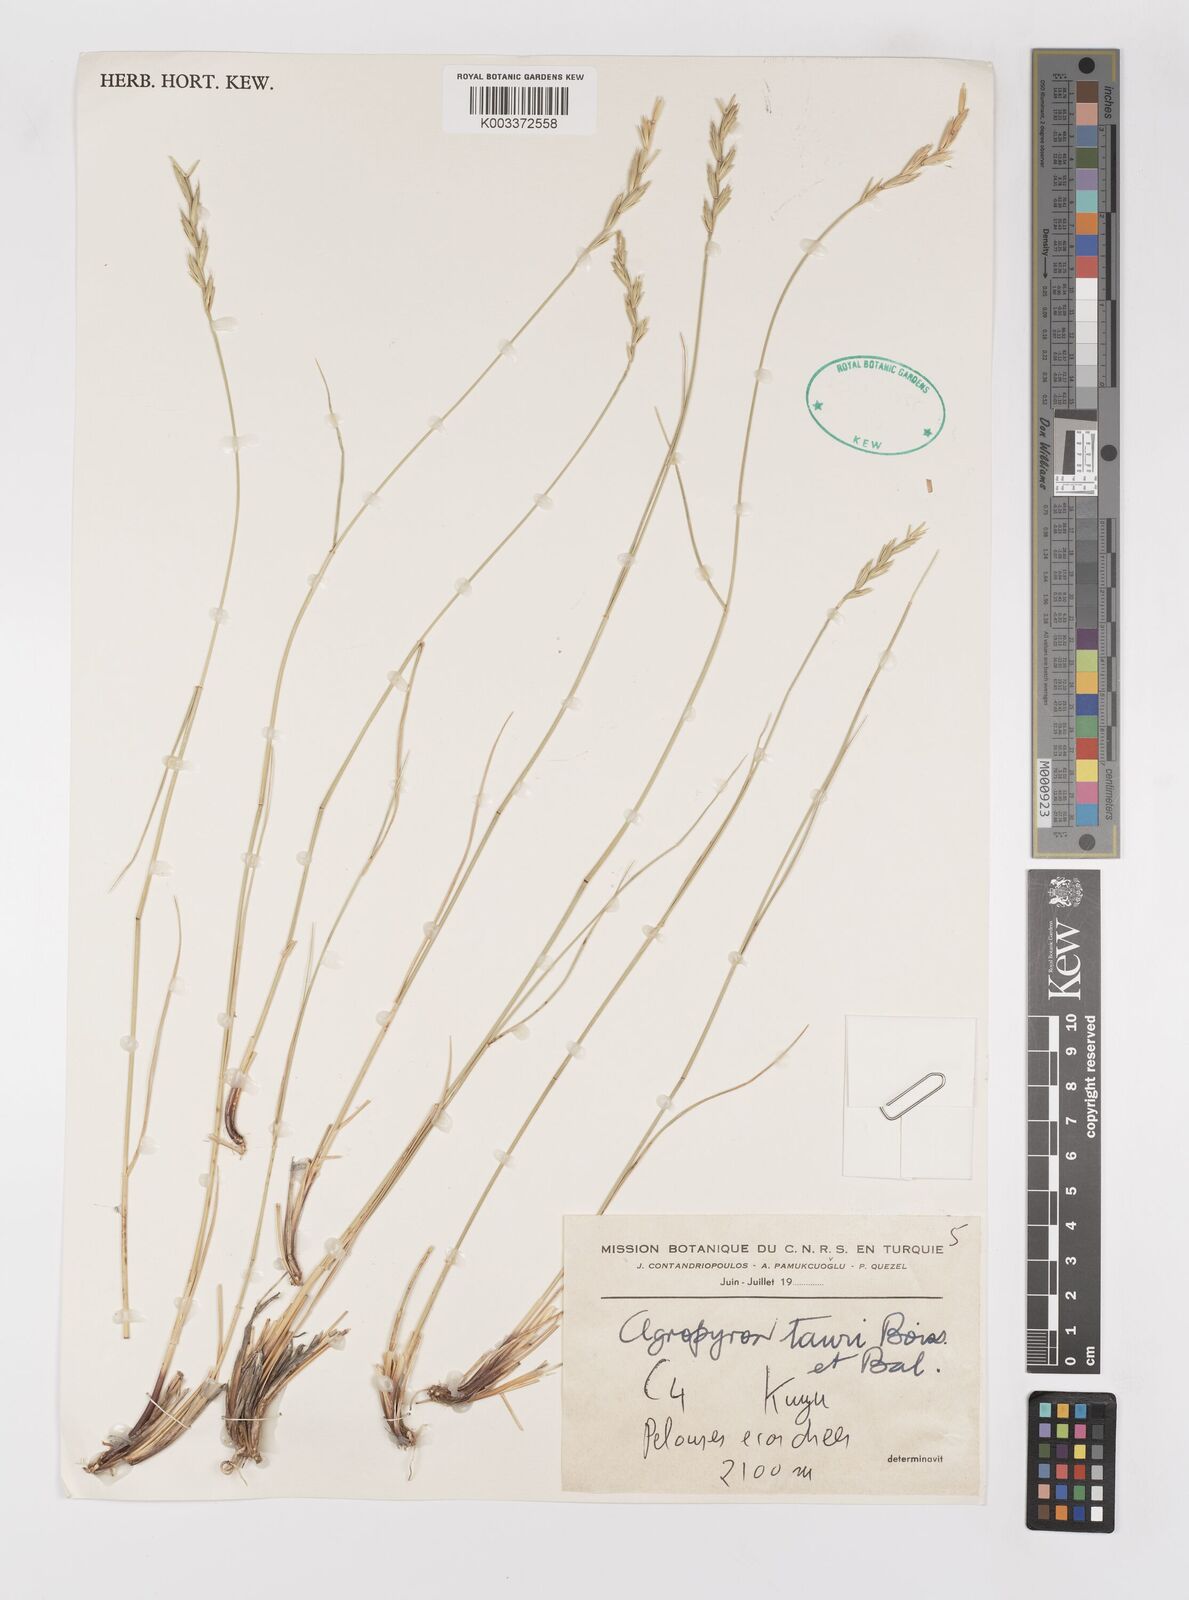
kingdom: Plantae
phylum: Tracheophyta
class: Liliopsida
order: Poales
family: Poaceae
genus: Pseudoroegneria
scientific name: Pseudoroegneria tauri
